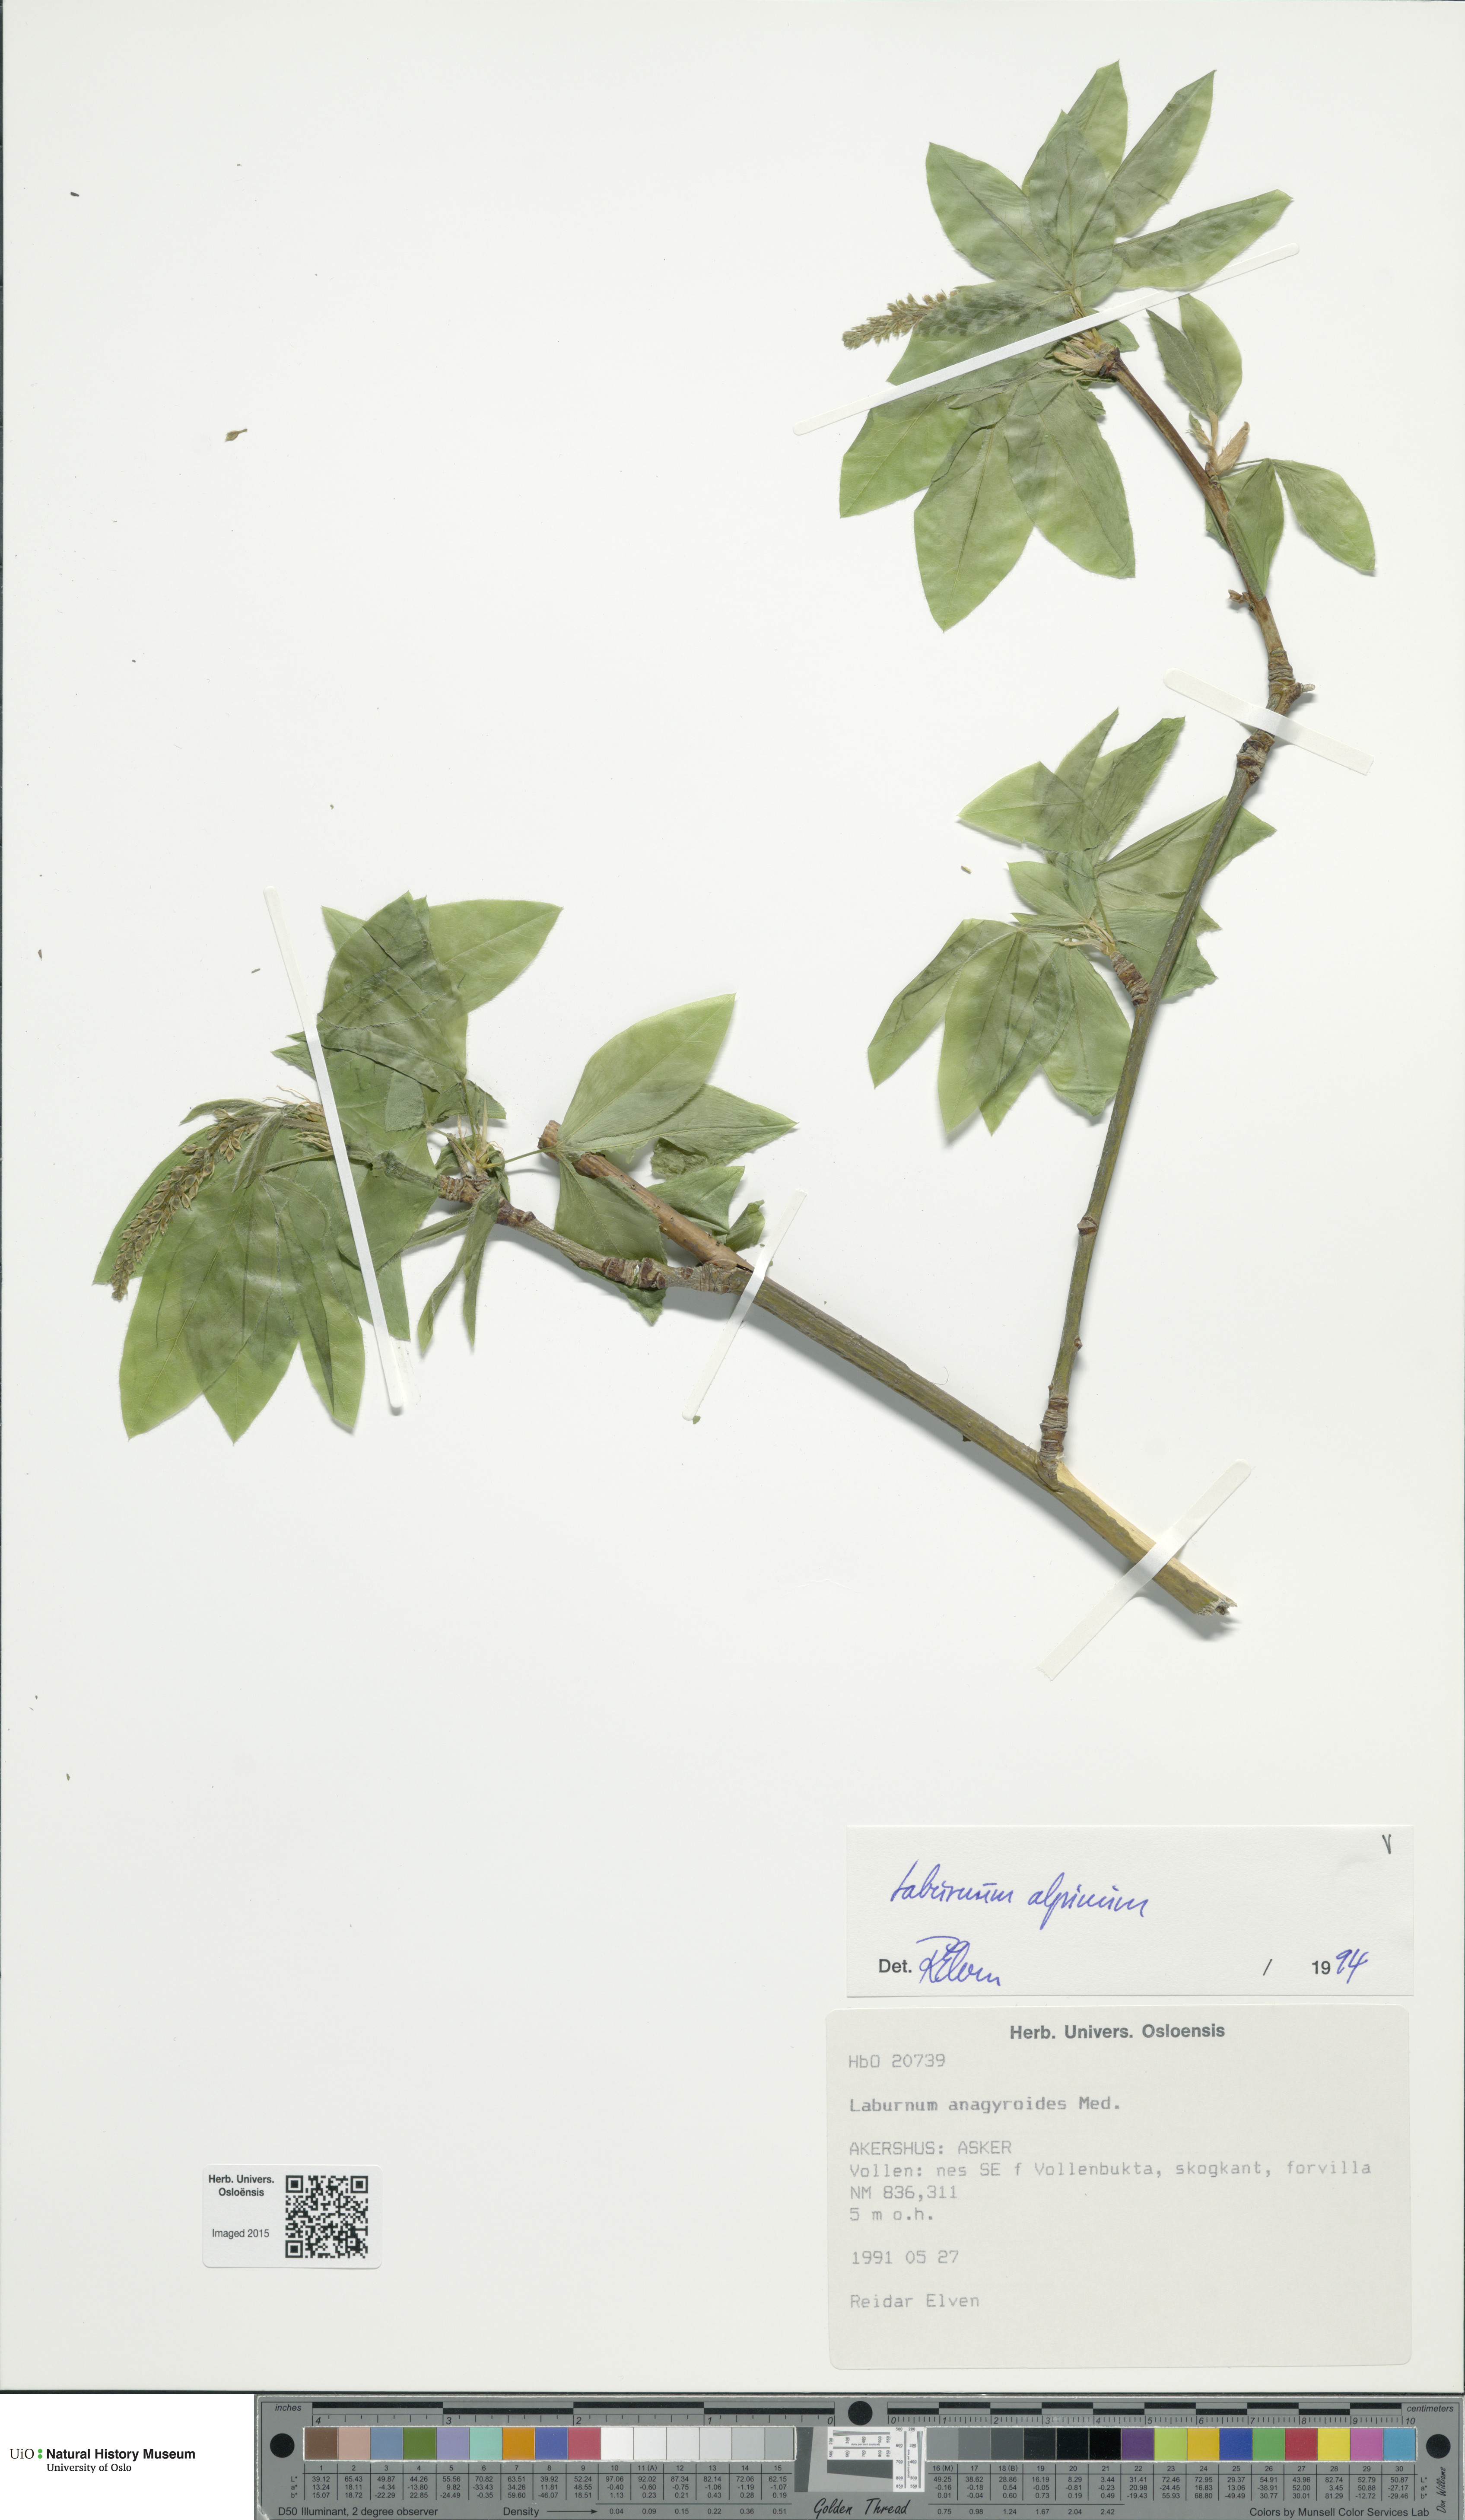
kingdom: Plantae
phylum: Tracheophyta
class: Magnoliopsida
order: Fabales
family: Fabaceae
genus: Laburnum
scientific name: Laburnum alpinum
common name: Scottish laburnum
